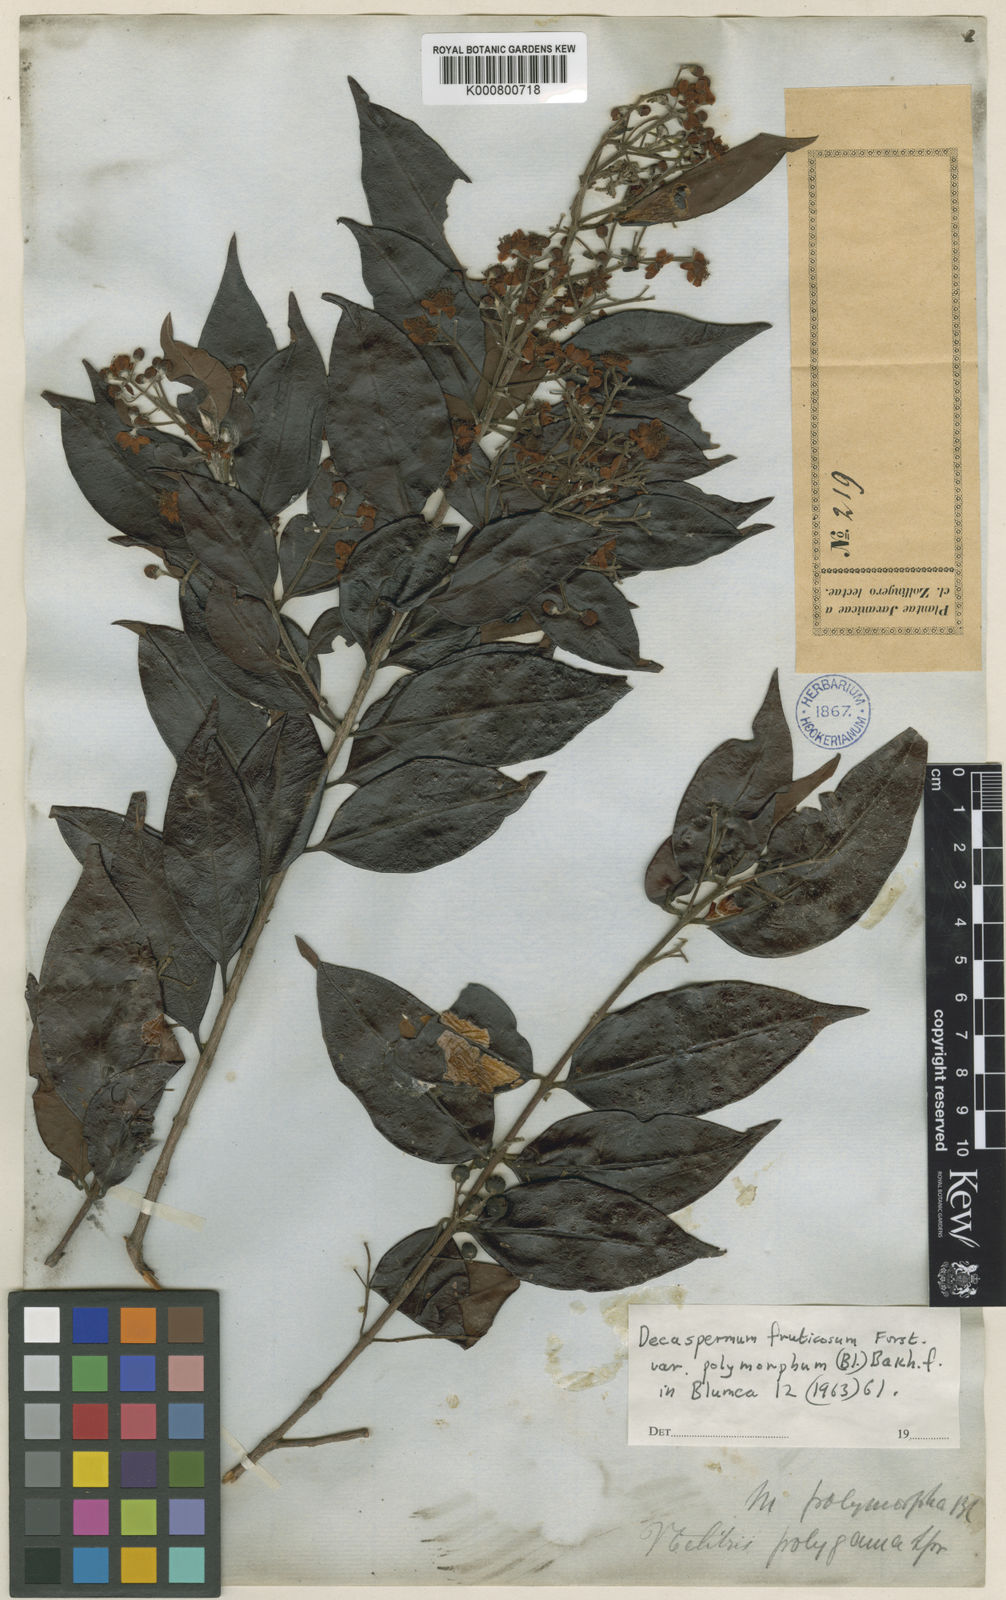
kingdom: Plantae
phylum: Tracheophyta
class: Magnoliopsida
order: Myrtales
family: Myrtaceae
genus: Decaspermum
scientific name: Decaspermum parviflorum
